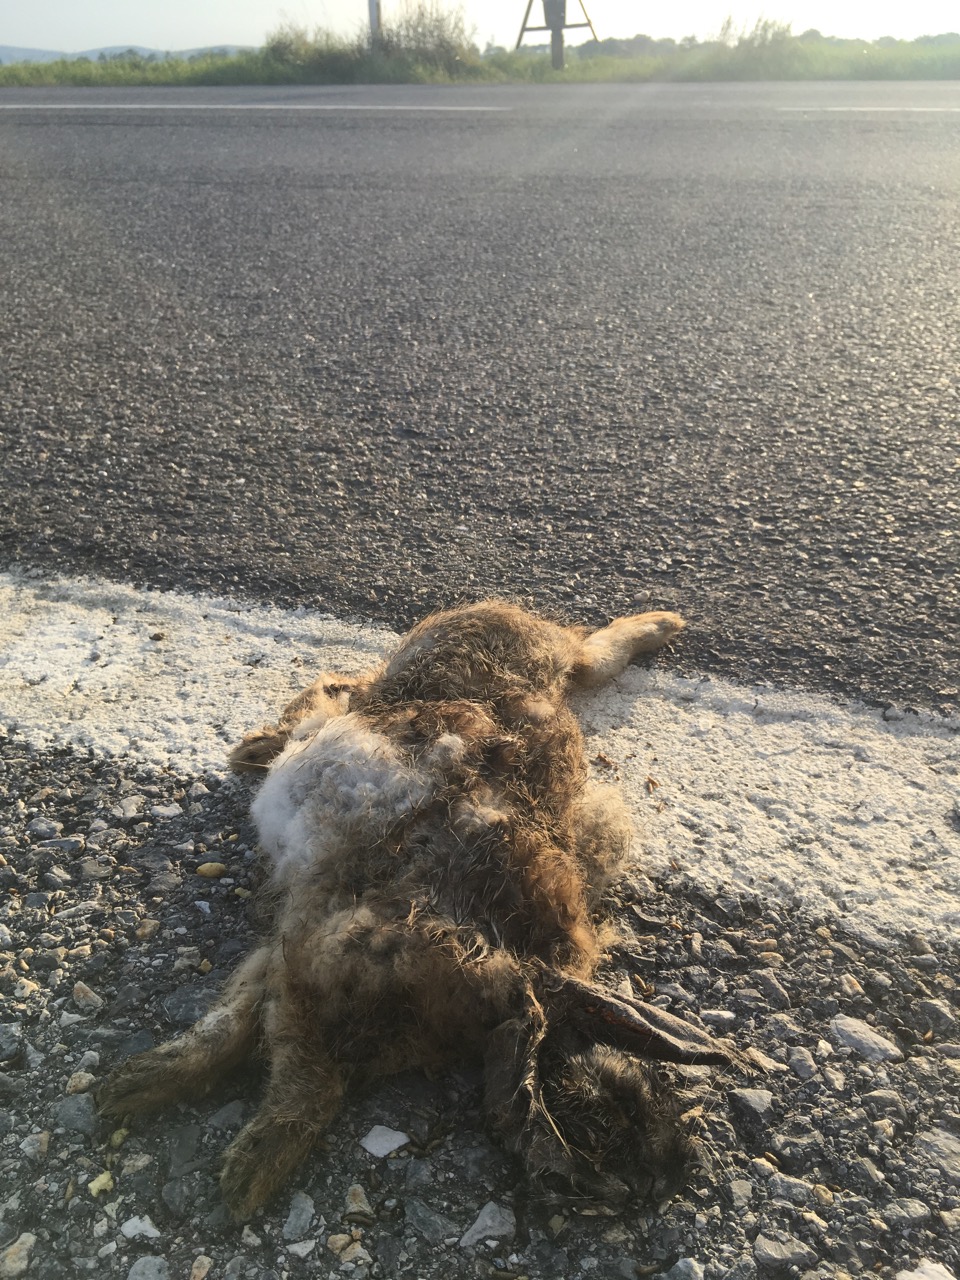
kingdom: Animalia
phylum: Chordata
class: Mammalia
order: Lagomorpha
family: Leporidae
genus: Oryctolagus
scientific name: Oryctolagus cuniculus
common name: European rabbit
